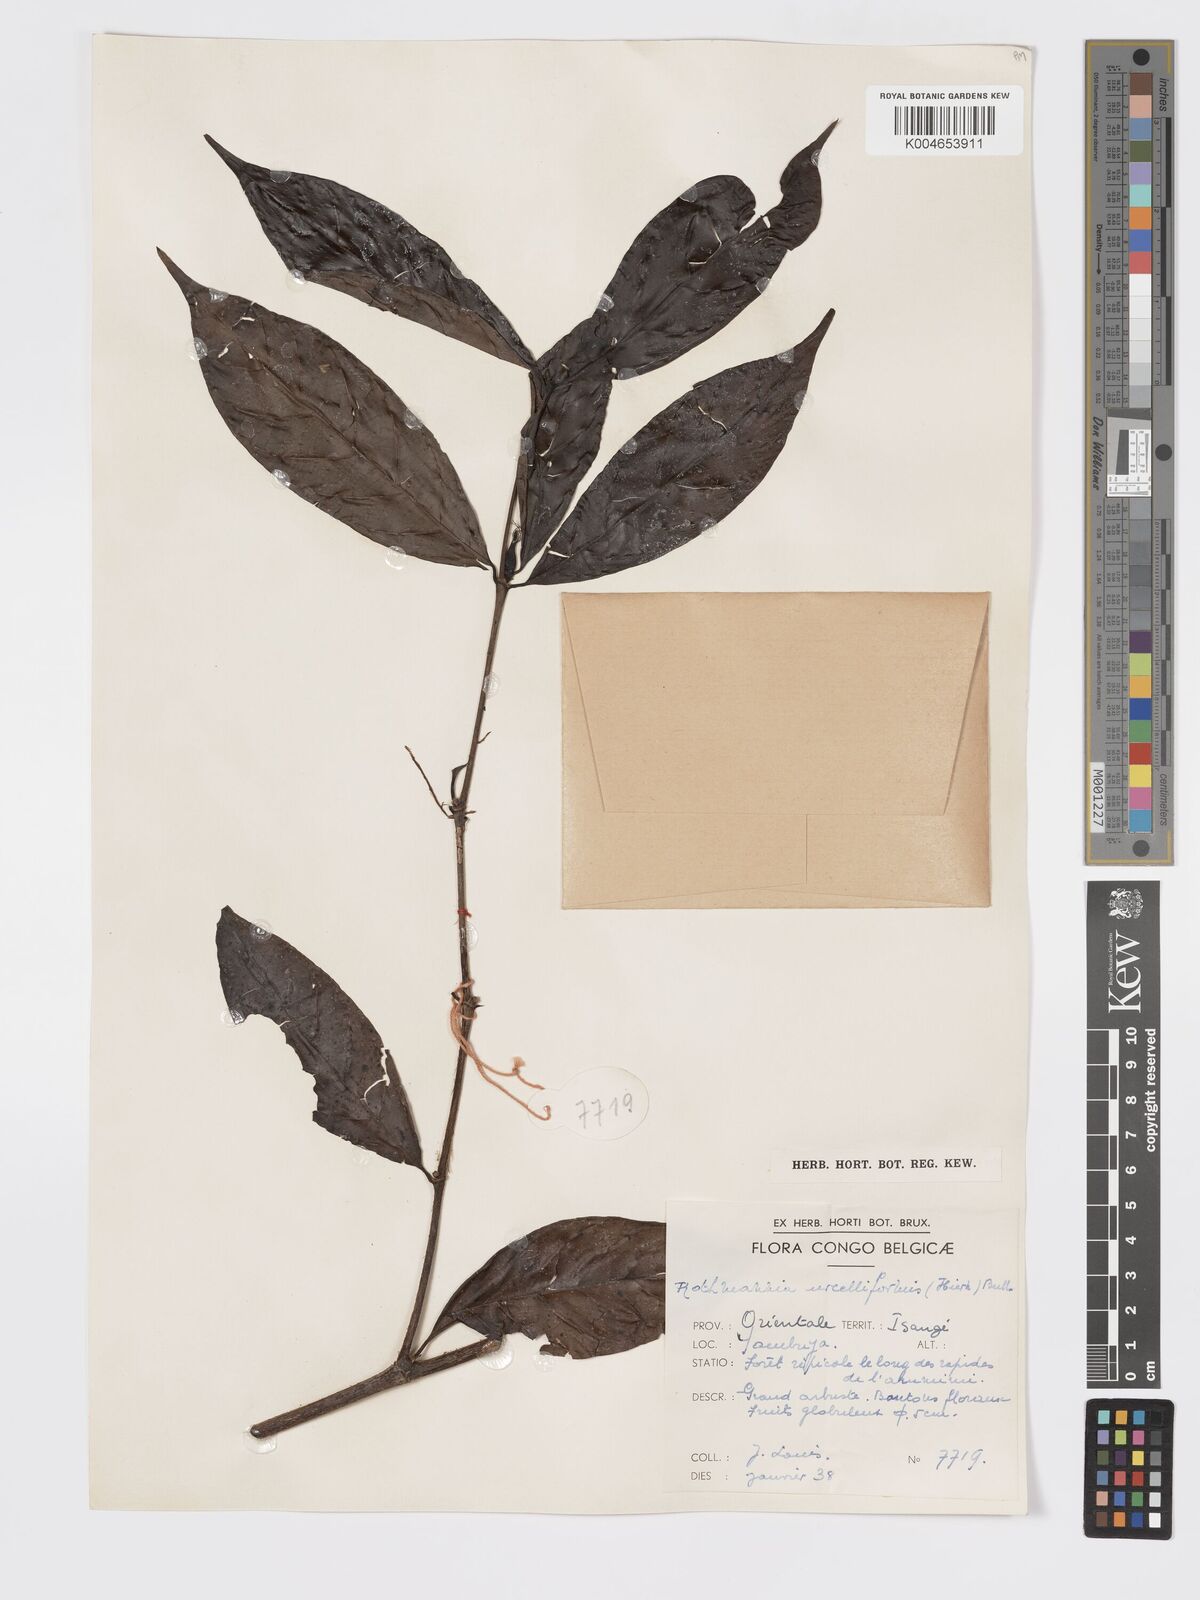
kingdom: Plantae
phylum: Tracheophyta
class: Magnoliopsida
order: Gentianales
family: Rubiaceae
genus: Rothmannia
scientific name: Rothmannia urcelliformis
